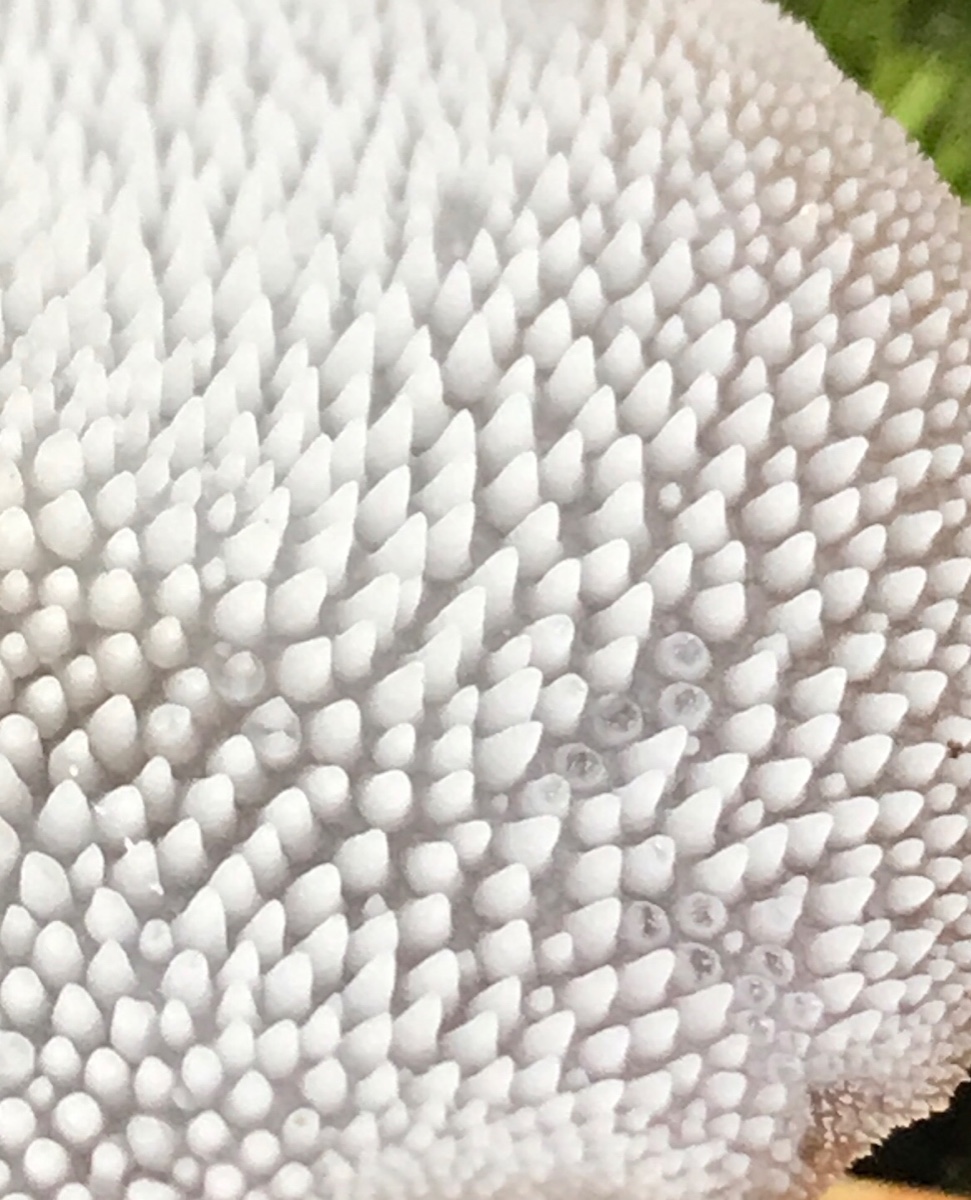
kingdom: Fungi
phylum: Basidiomycota
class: Agaricomycetes
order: Auriculariales
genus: Pseudohydnum
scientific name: Pseudohydnum gelatinosum
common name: bævretand
